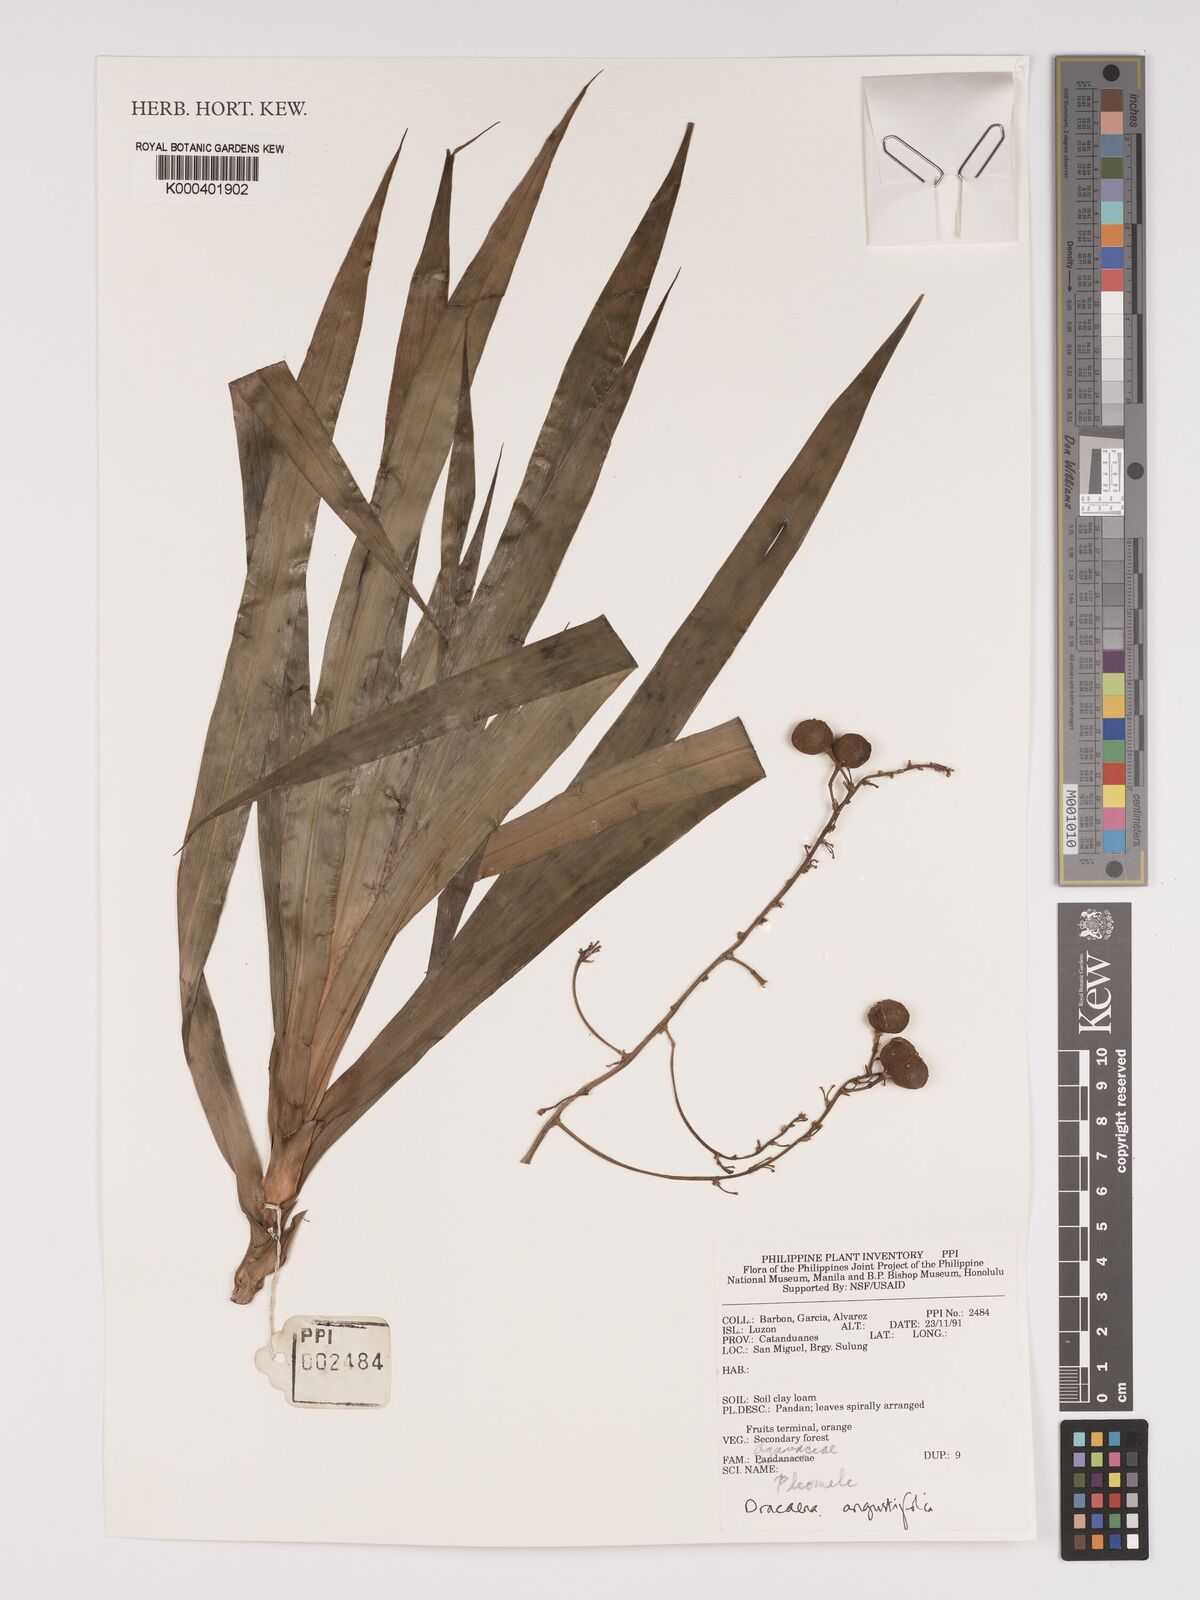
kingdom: Plantae
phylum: Tracheophyta
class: Liliopsida
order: Asparagales
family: Asparagaceae
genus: Dracaena
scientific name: Dracaena angustifolia
